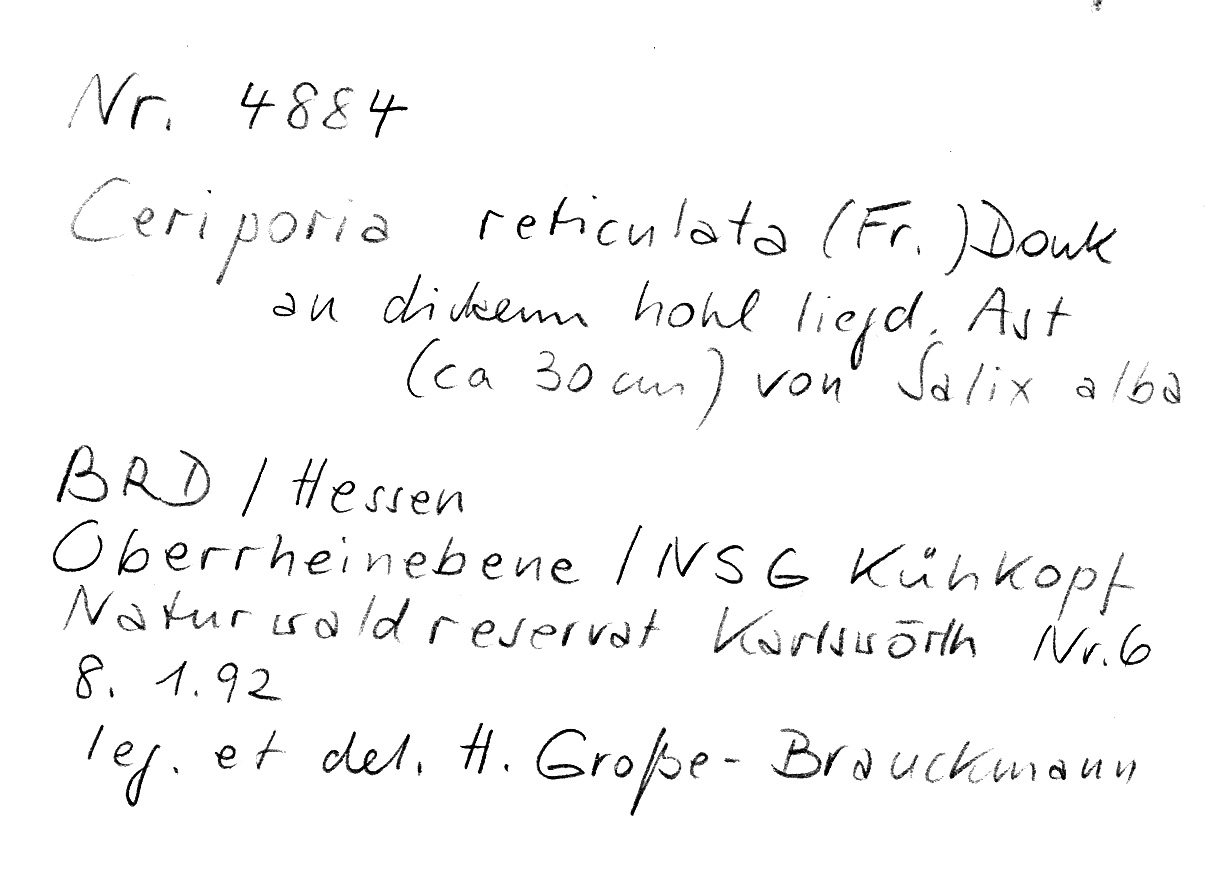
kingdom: Plantae
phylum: Tracheophyta
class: Magnoliopsida
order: Malpighiales
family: Salicaceae
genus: Salix
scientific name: Salix alba
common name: White willow
